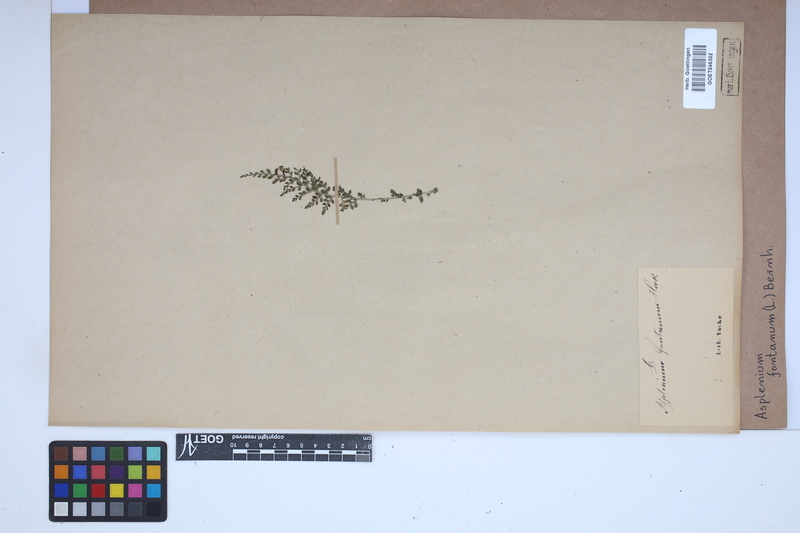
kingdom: Plantae
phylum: Tracheophyta
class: Polypodiopsida
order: Polypodiales
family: Aspleniaceae
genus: Asplenium
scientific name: Asplenium fontanum
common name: Fountain spleenwort
